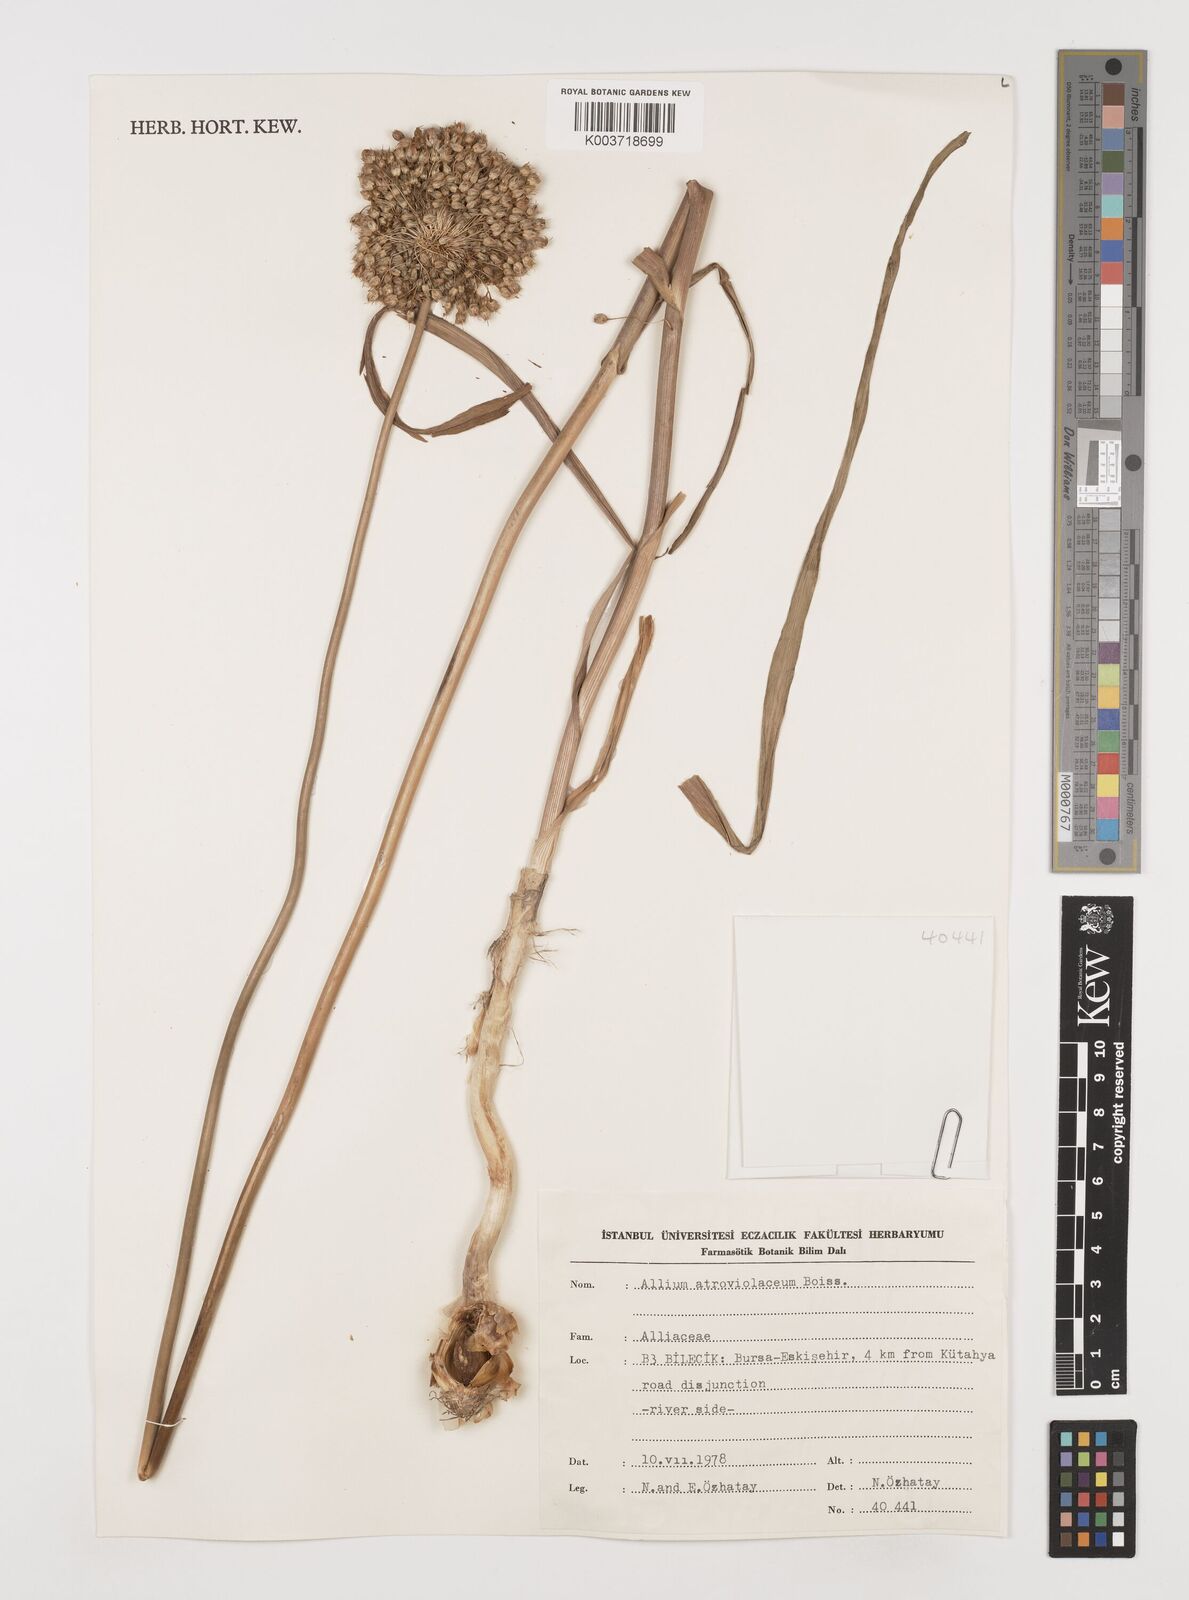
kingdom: Plantae
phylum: Tracheophyta
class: Liliopsida
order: Asparagales
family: Amaryllidaceae
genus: Allium
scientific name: Allium atroviolaceum
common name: Broadleaf wild leek
